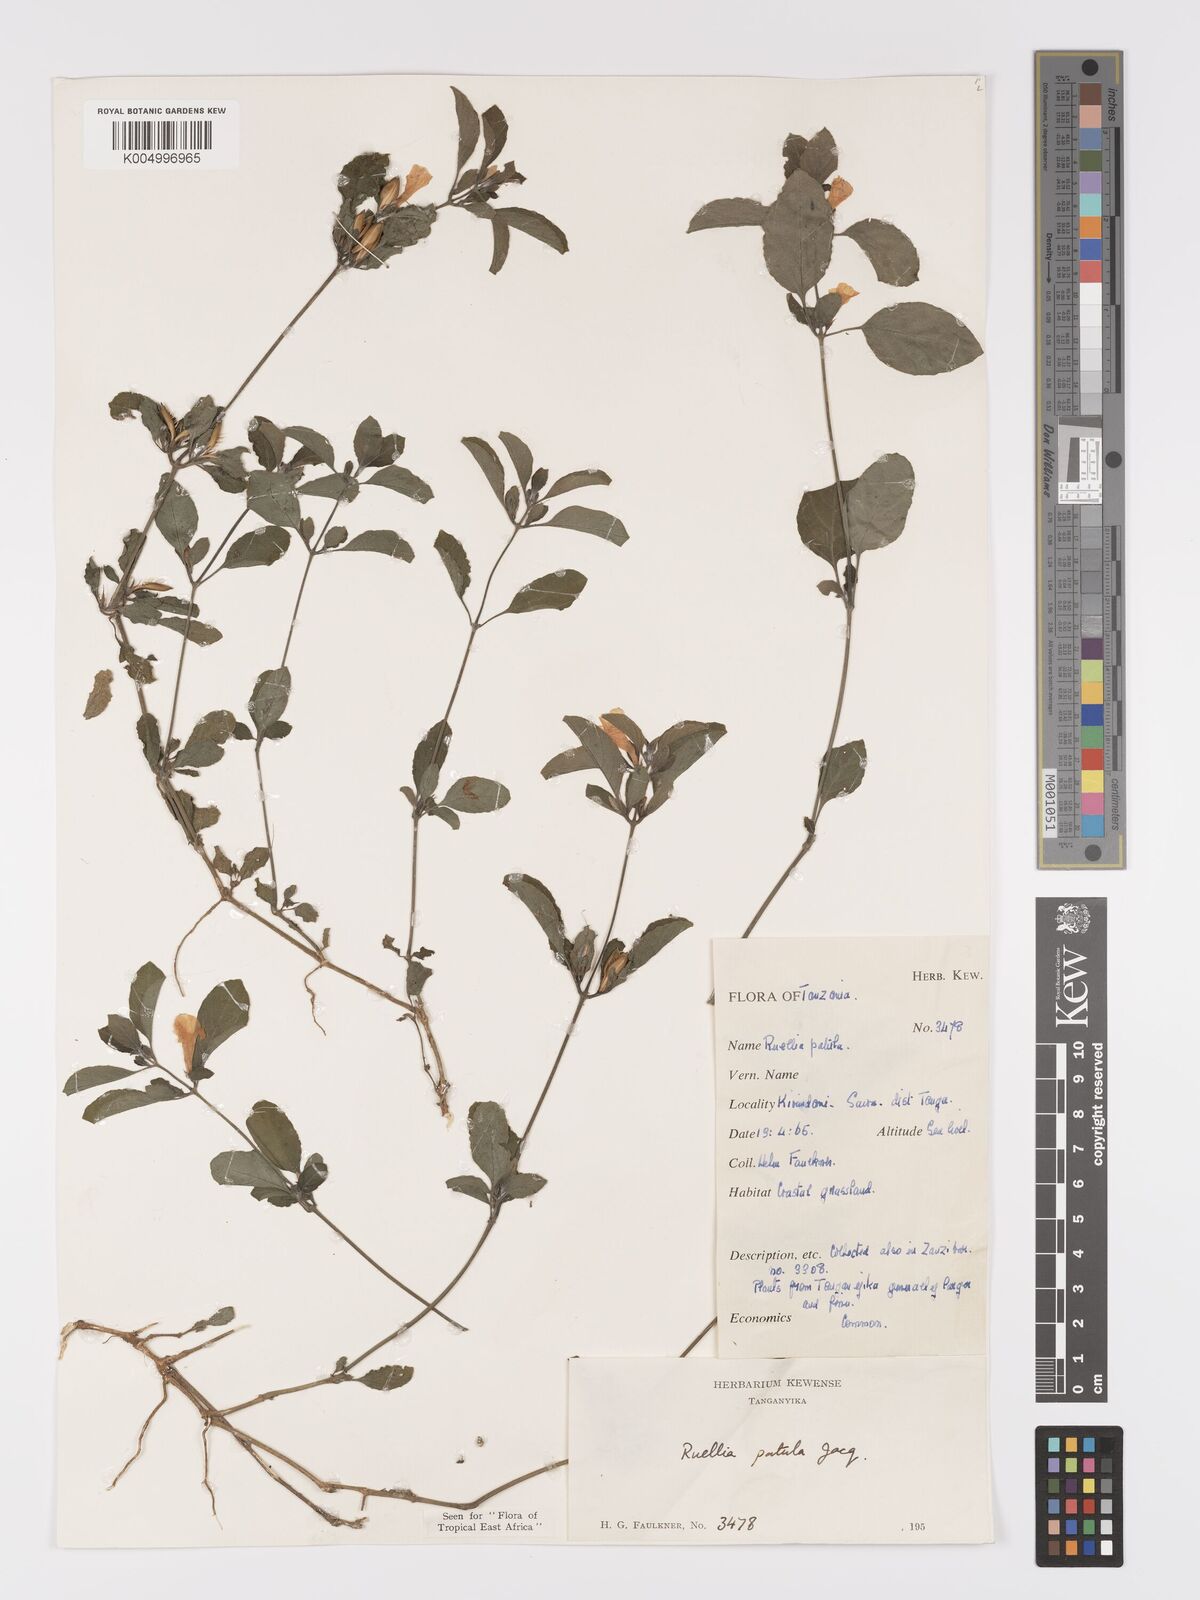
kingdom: Plantae
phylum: Tracheophyta
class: Magnoliopsida
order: Lamiales
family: Acanthaceae
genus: Ruellia
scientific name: Ruellia patula
